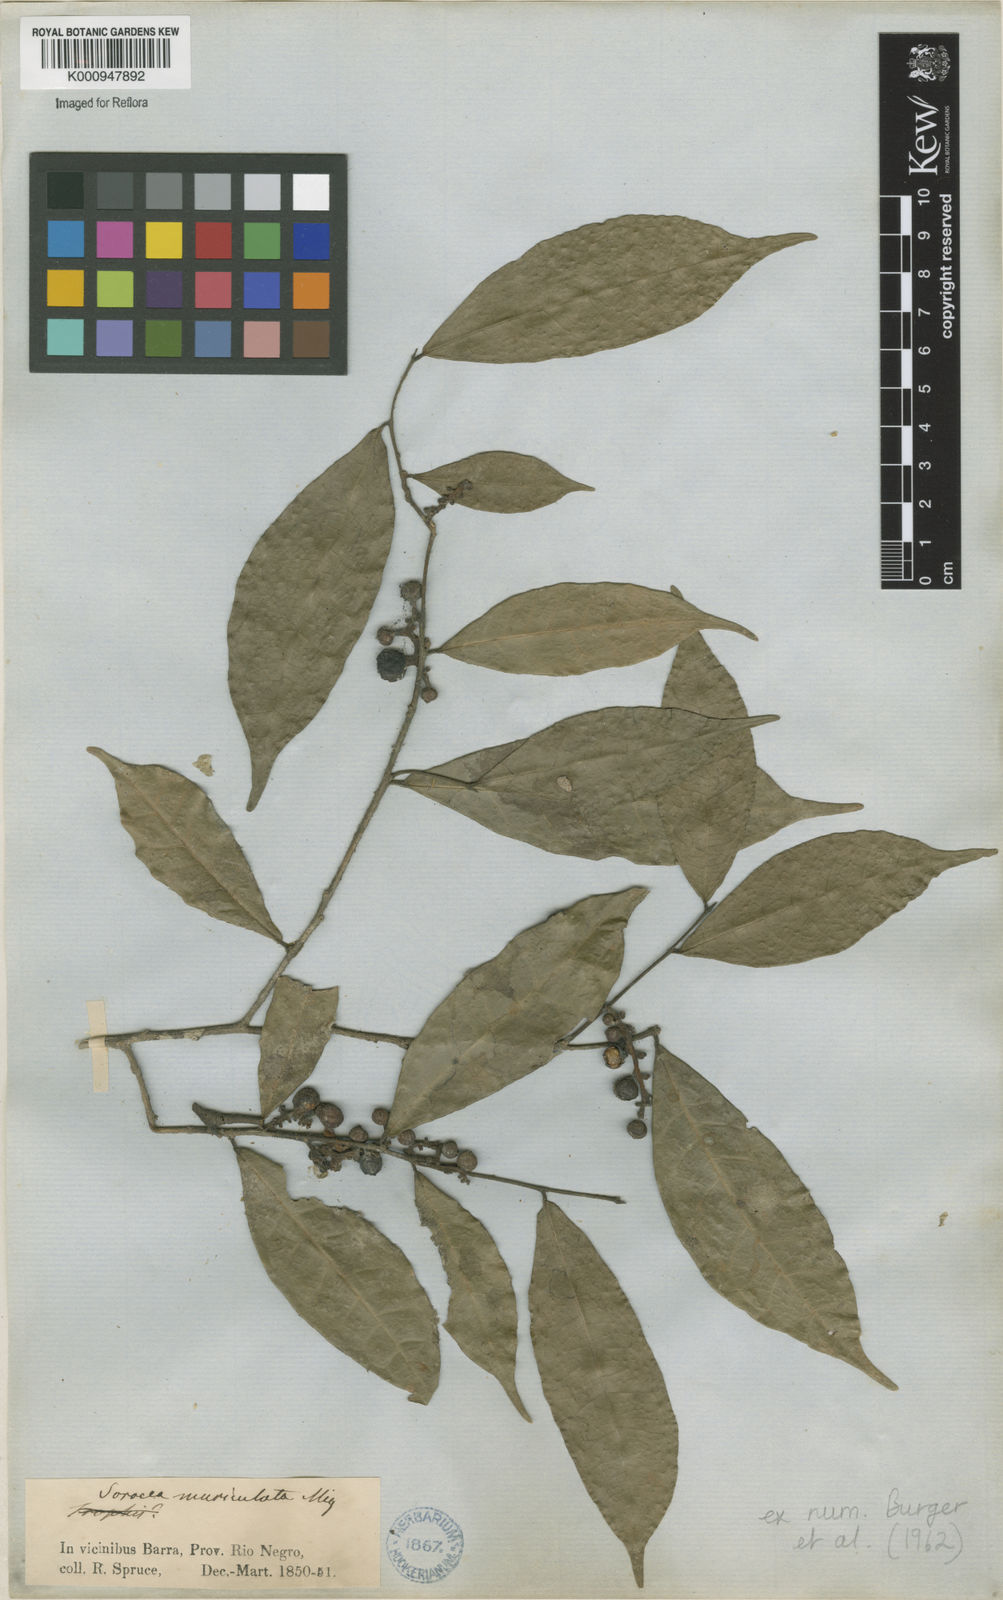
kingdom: Plantae
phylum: Tracheophyta
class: Magnoliopsida
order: Rosales
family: Moraceae
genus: Sorocea
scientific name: Sorocea muriculata
